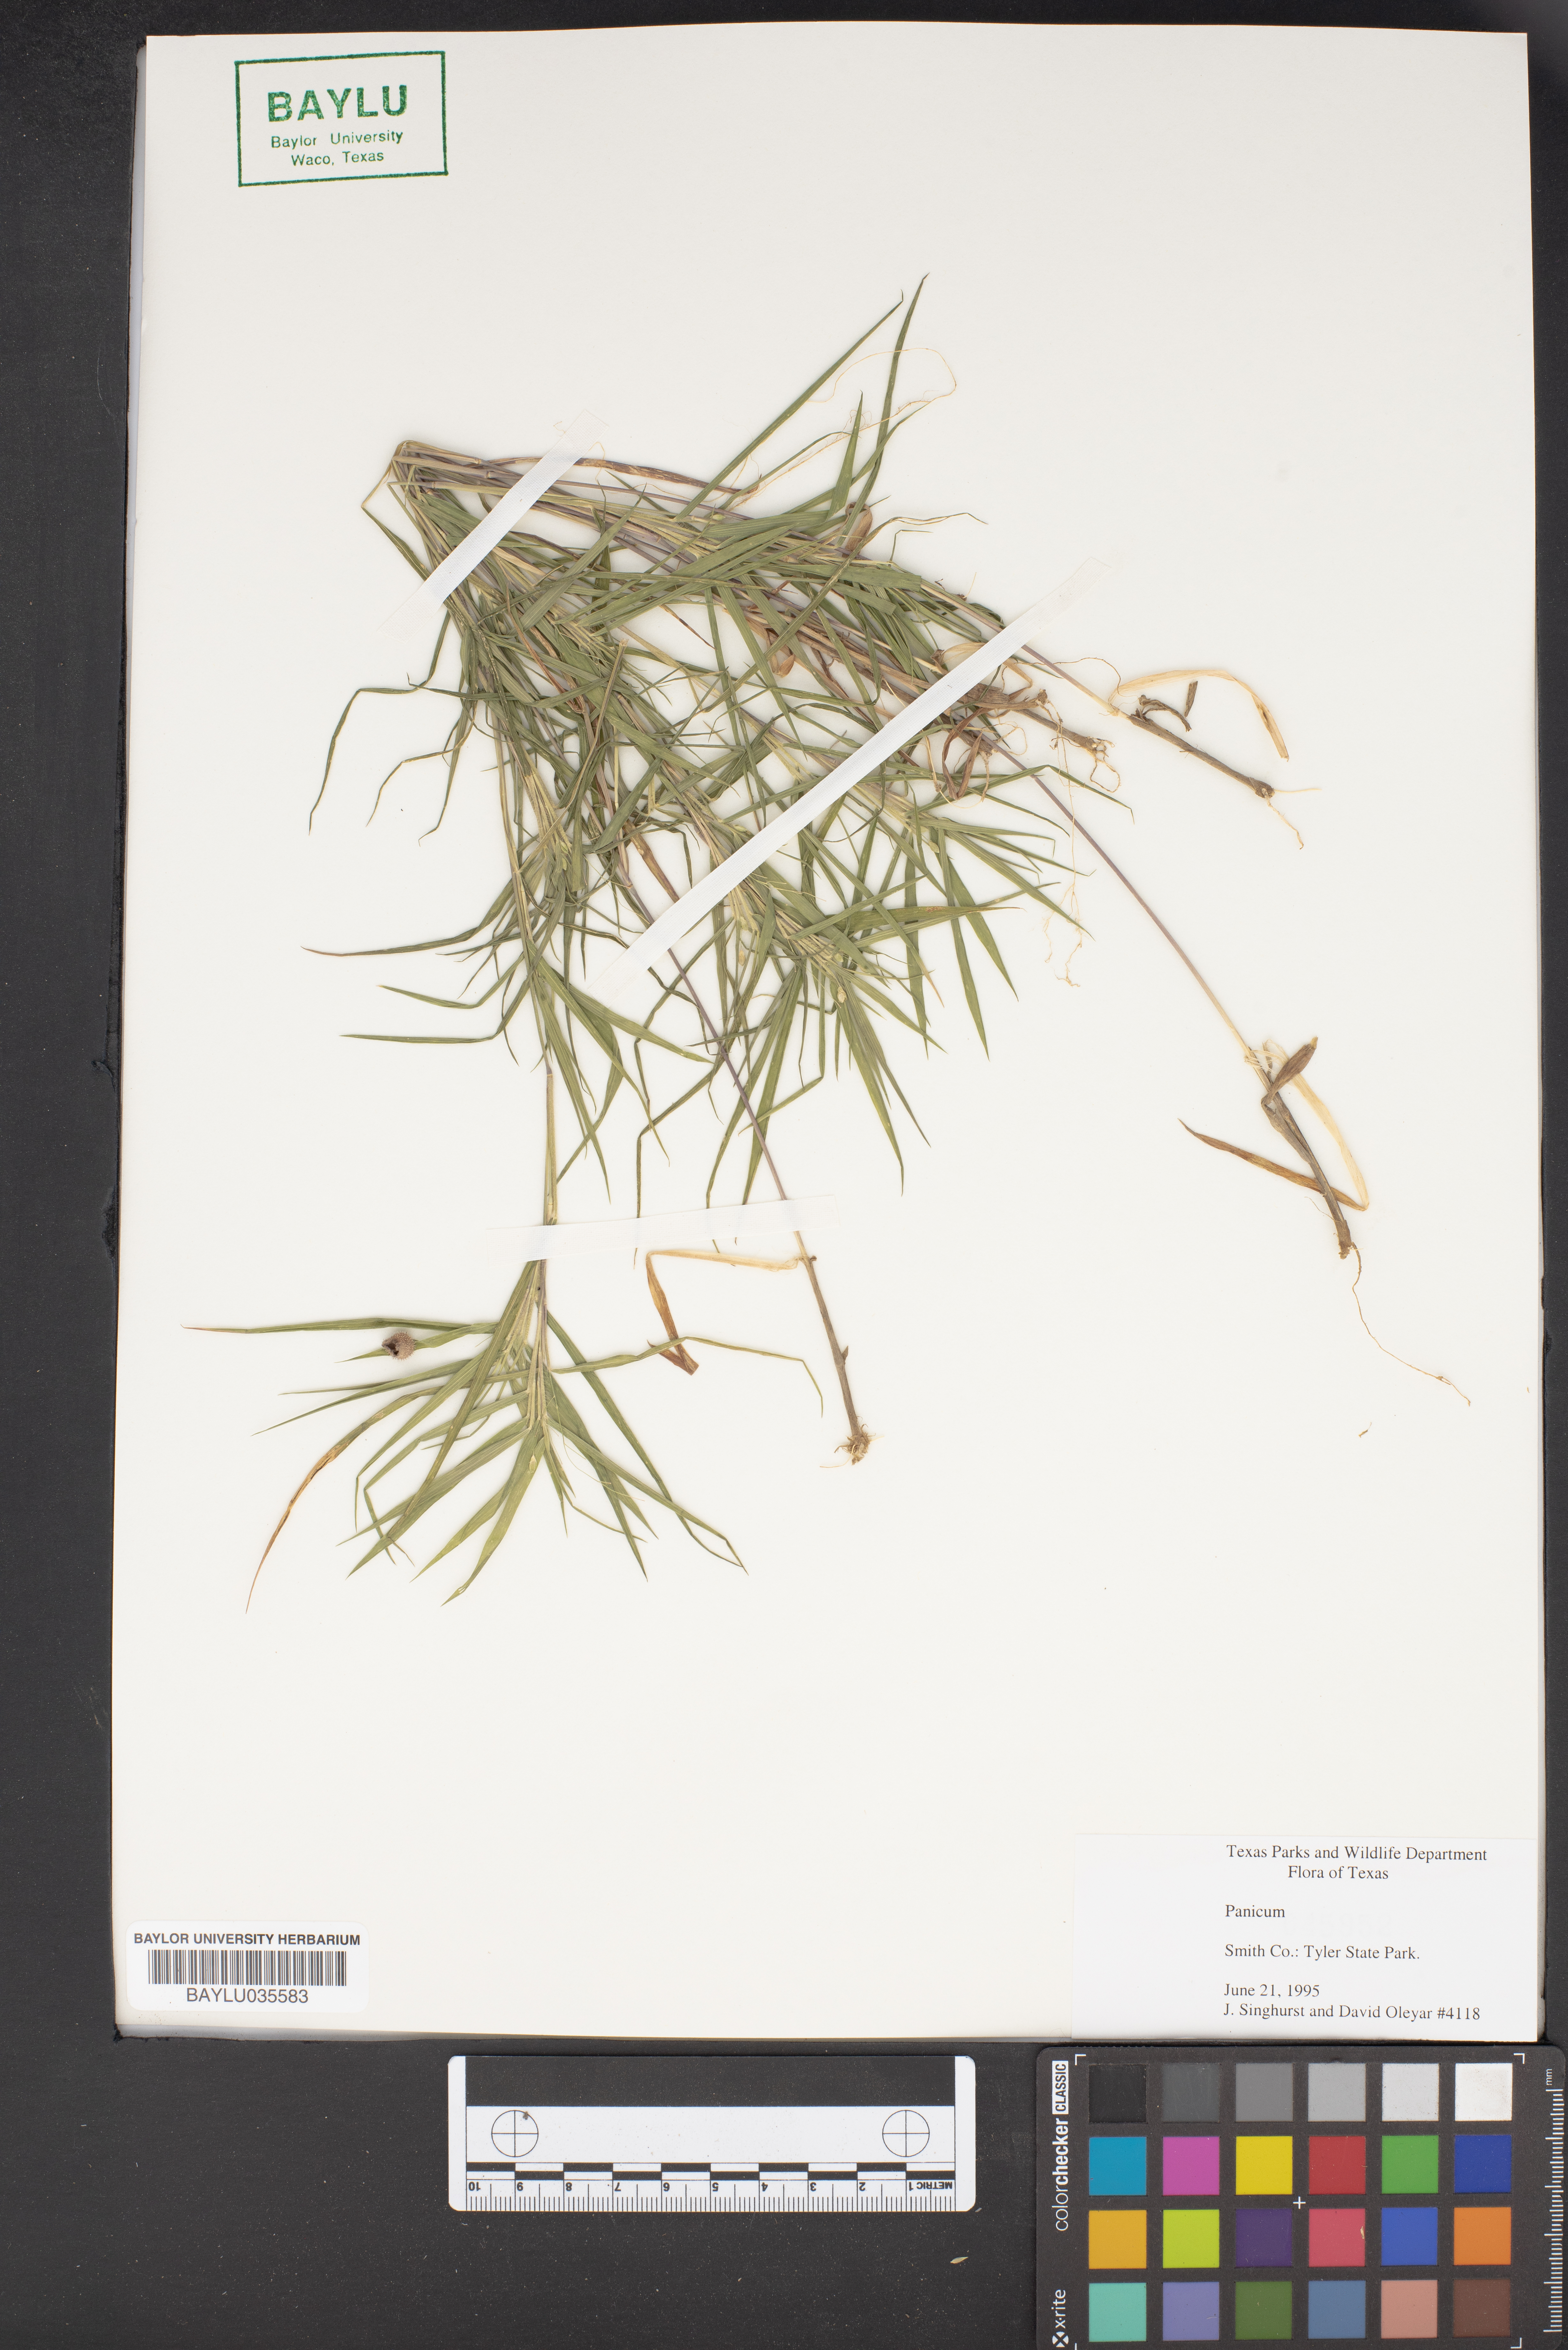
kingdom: Plantae
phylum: Tracheophyta
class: Liliopsida
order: Poales
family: Poaceae
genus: Panicum
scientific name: Panicum
